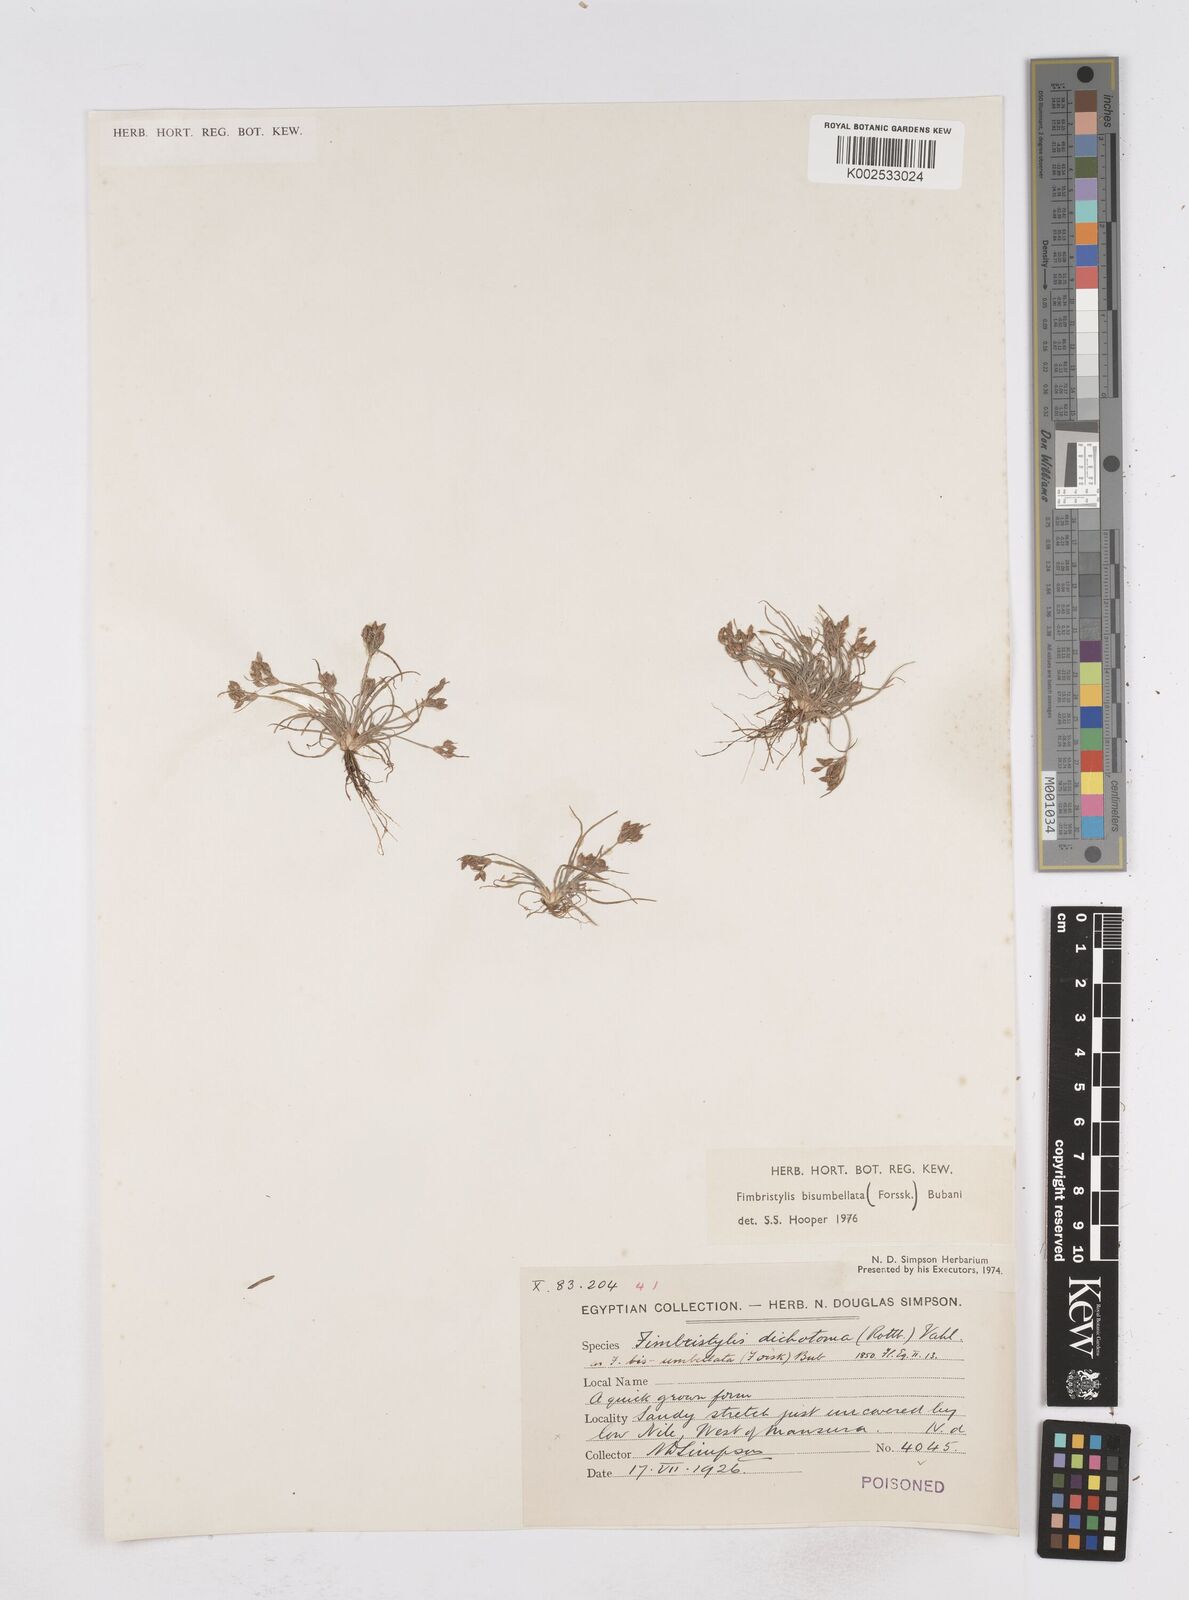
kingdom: Plantae
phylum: Tracheophyta
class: Liliopsida
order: Poales
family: Cyperaceae
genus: Fimbristylis
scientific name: Fimbristylis bisumbellata
